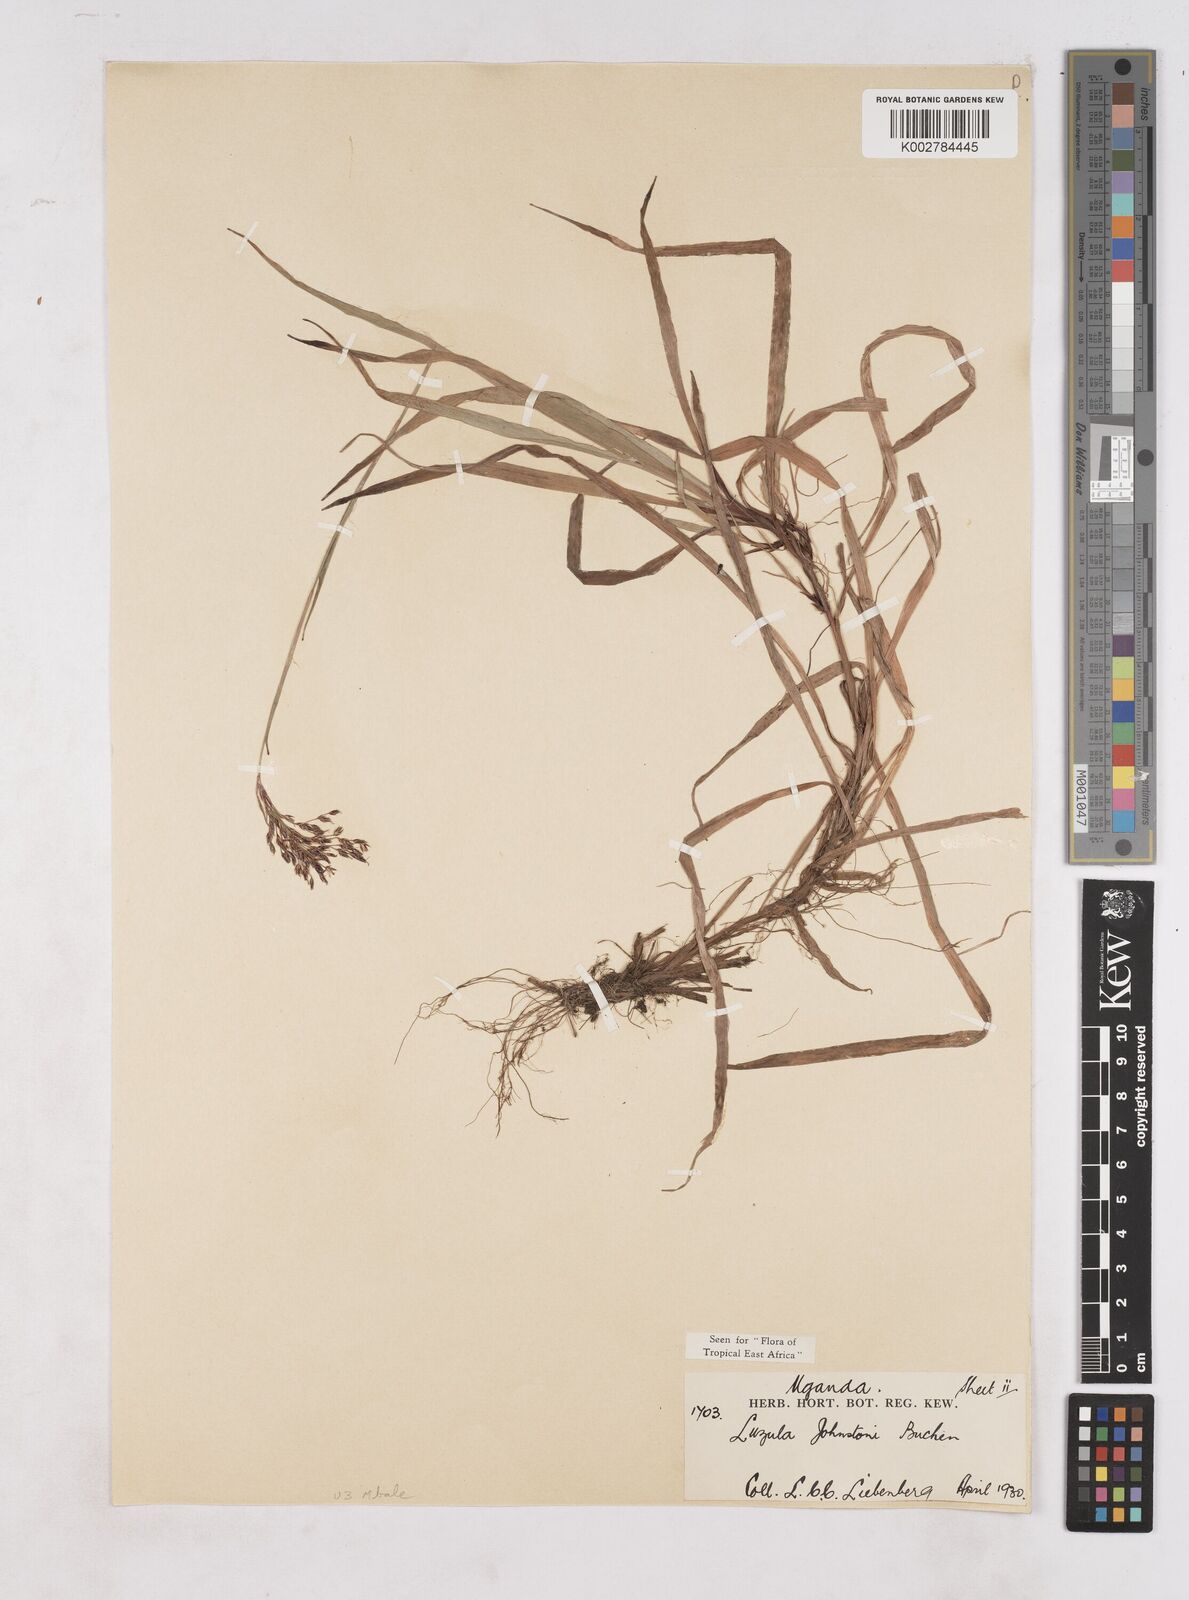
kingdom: Plantae
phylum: Tracheophyta
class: Liliopsida
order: Poales
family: Juncaceae
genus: Luzula
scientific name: Luzula johnstonii
